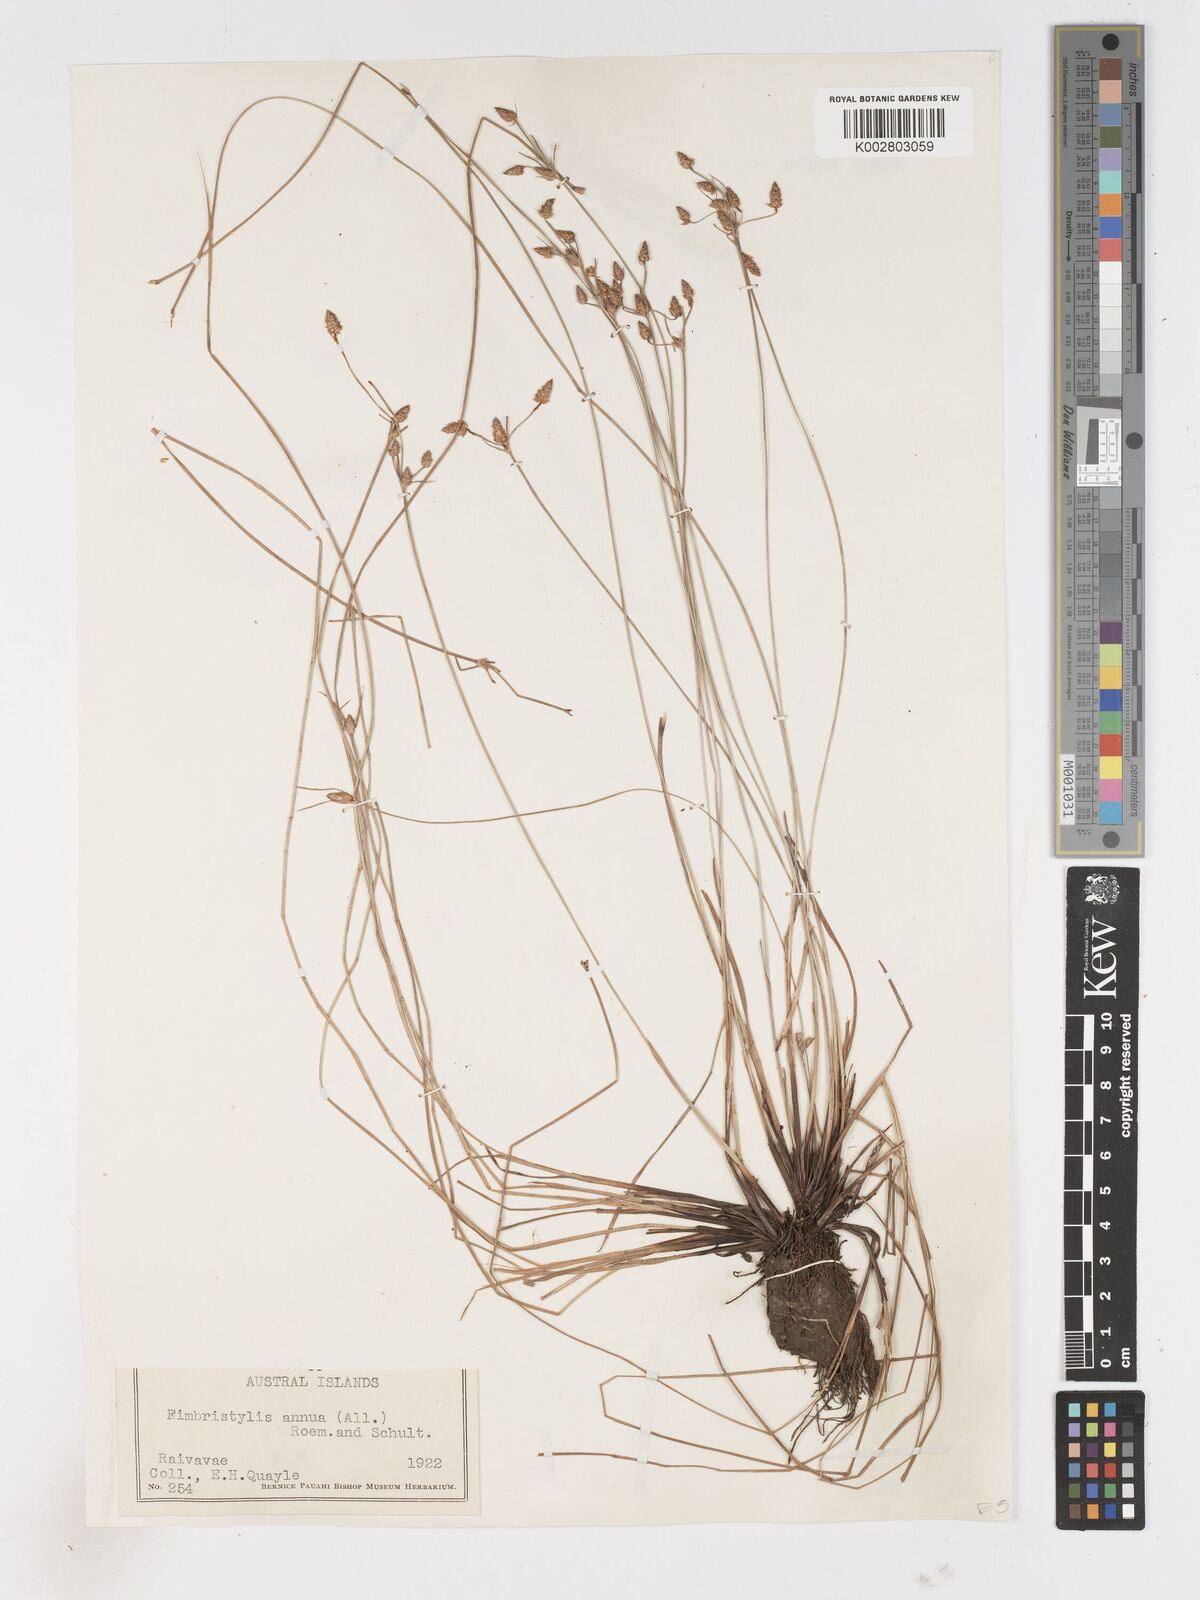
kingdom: Plantae
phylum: Tracheophyta
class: Liliopsida
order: Poales
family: Cyperaceae
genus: Fimbristylis
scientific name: Fimbristylis dichotoma
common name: Forked fimbry
